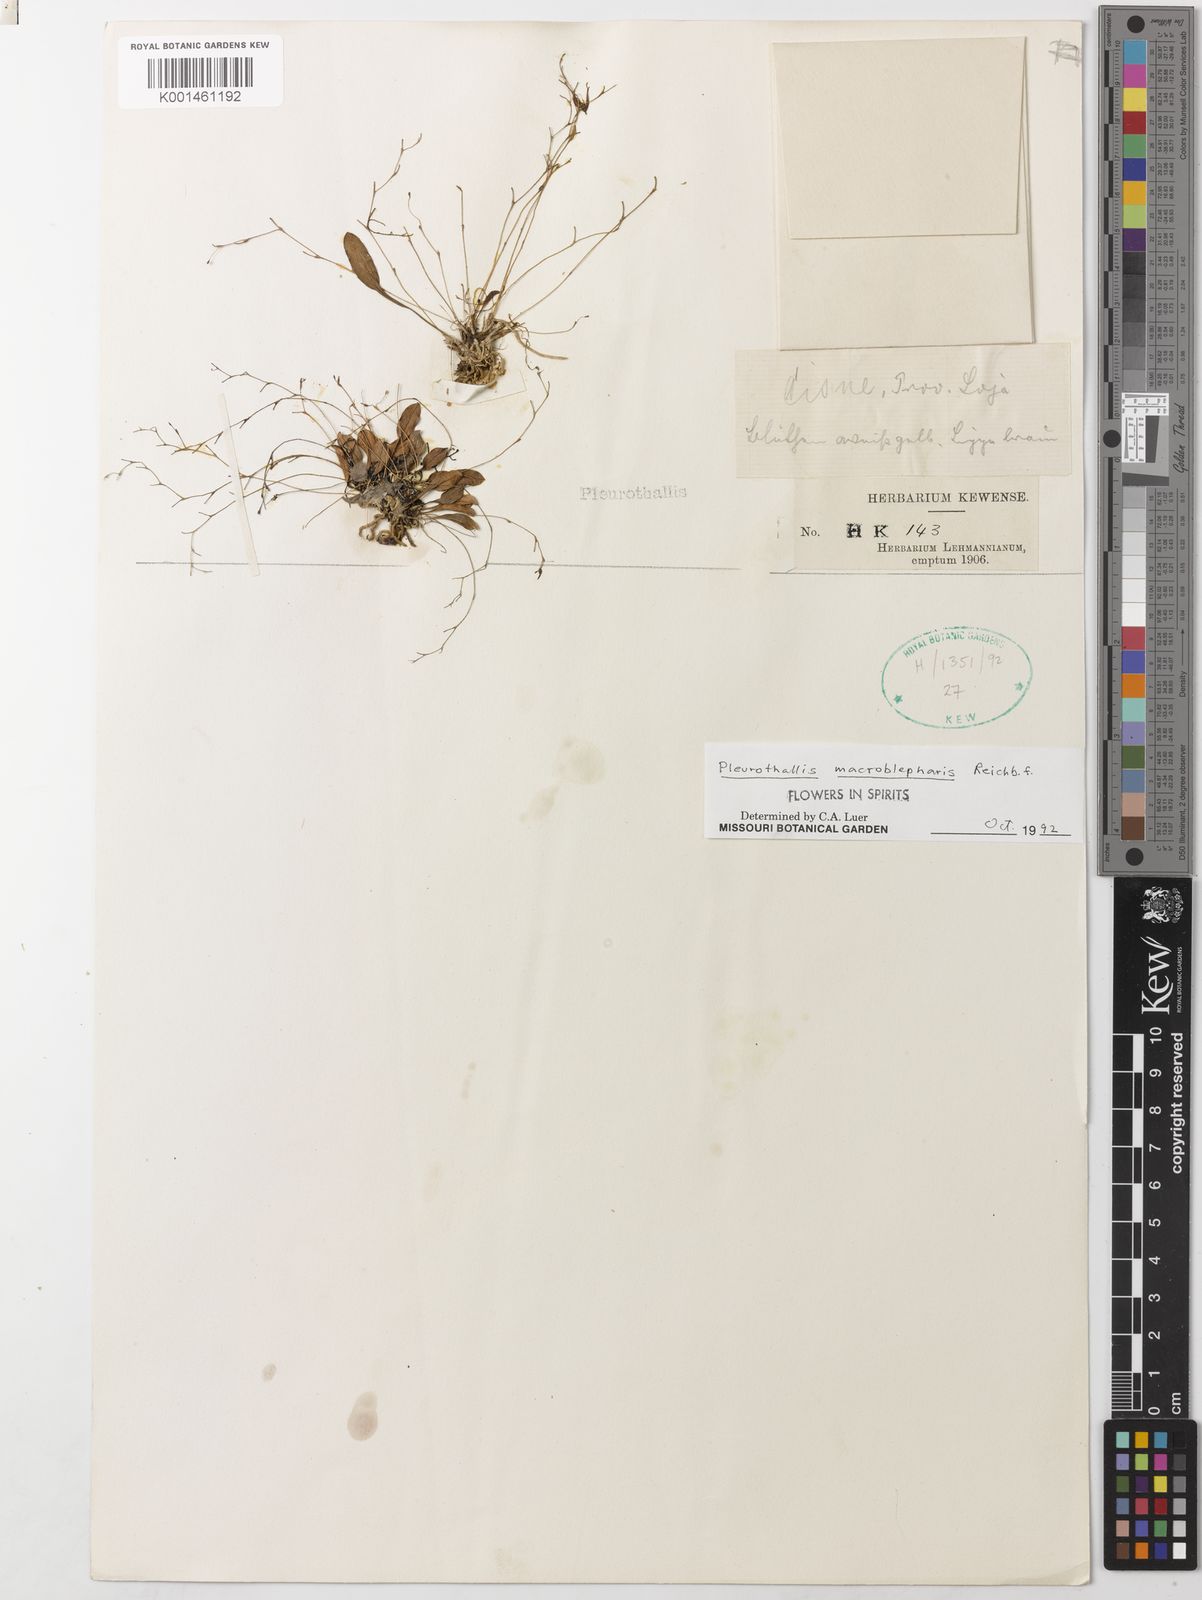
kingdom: Plantae
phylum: Tracheophyta
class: Liliopsida
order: Asparagales
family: Orchidaceae
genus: Muscarella
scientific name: Muscarella macroblepharis
